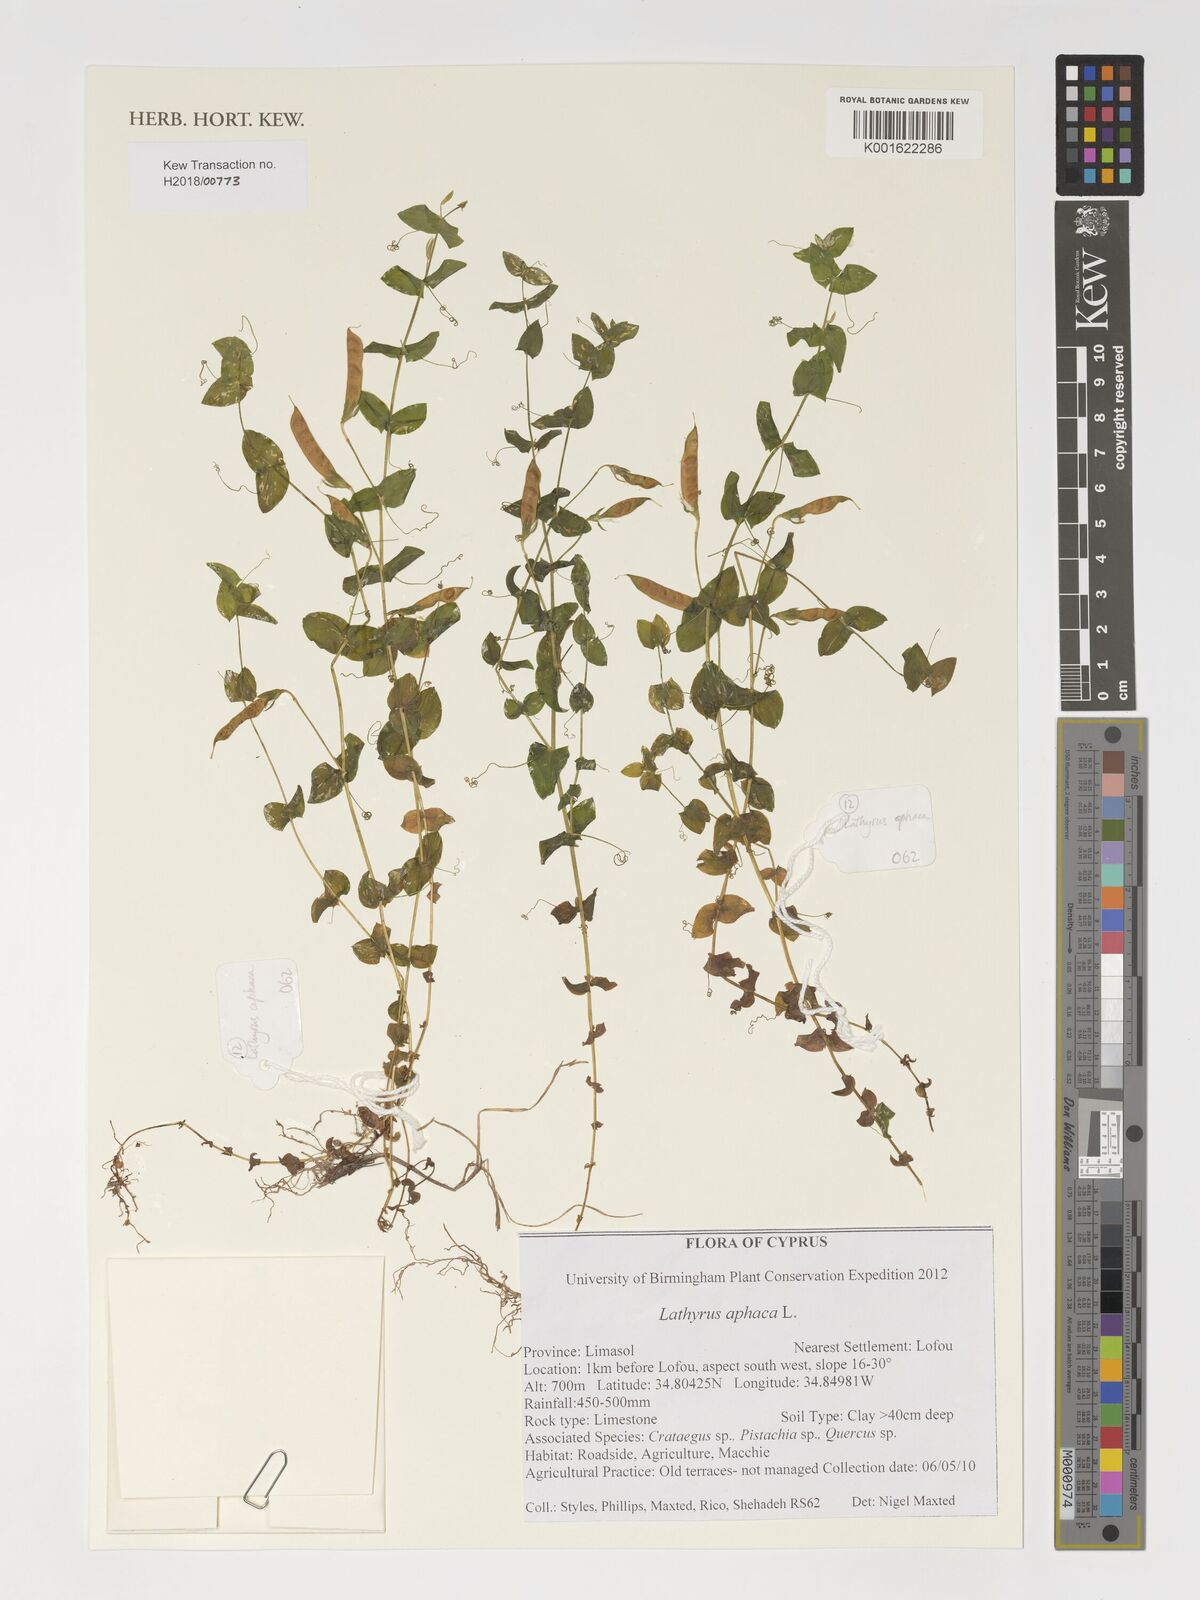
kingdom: Plantae
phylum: Tracheophyta
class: Magnoliopsida
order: Fabales
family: Fabaceae
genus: Lathyrus
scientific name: Lathyrus aphaca
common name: Yellow vetchling
